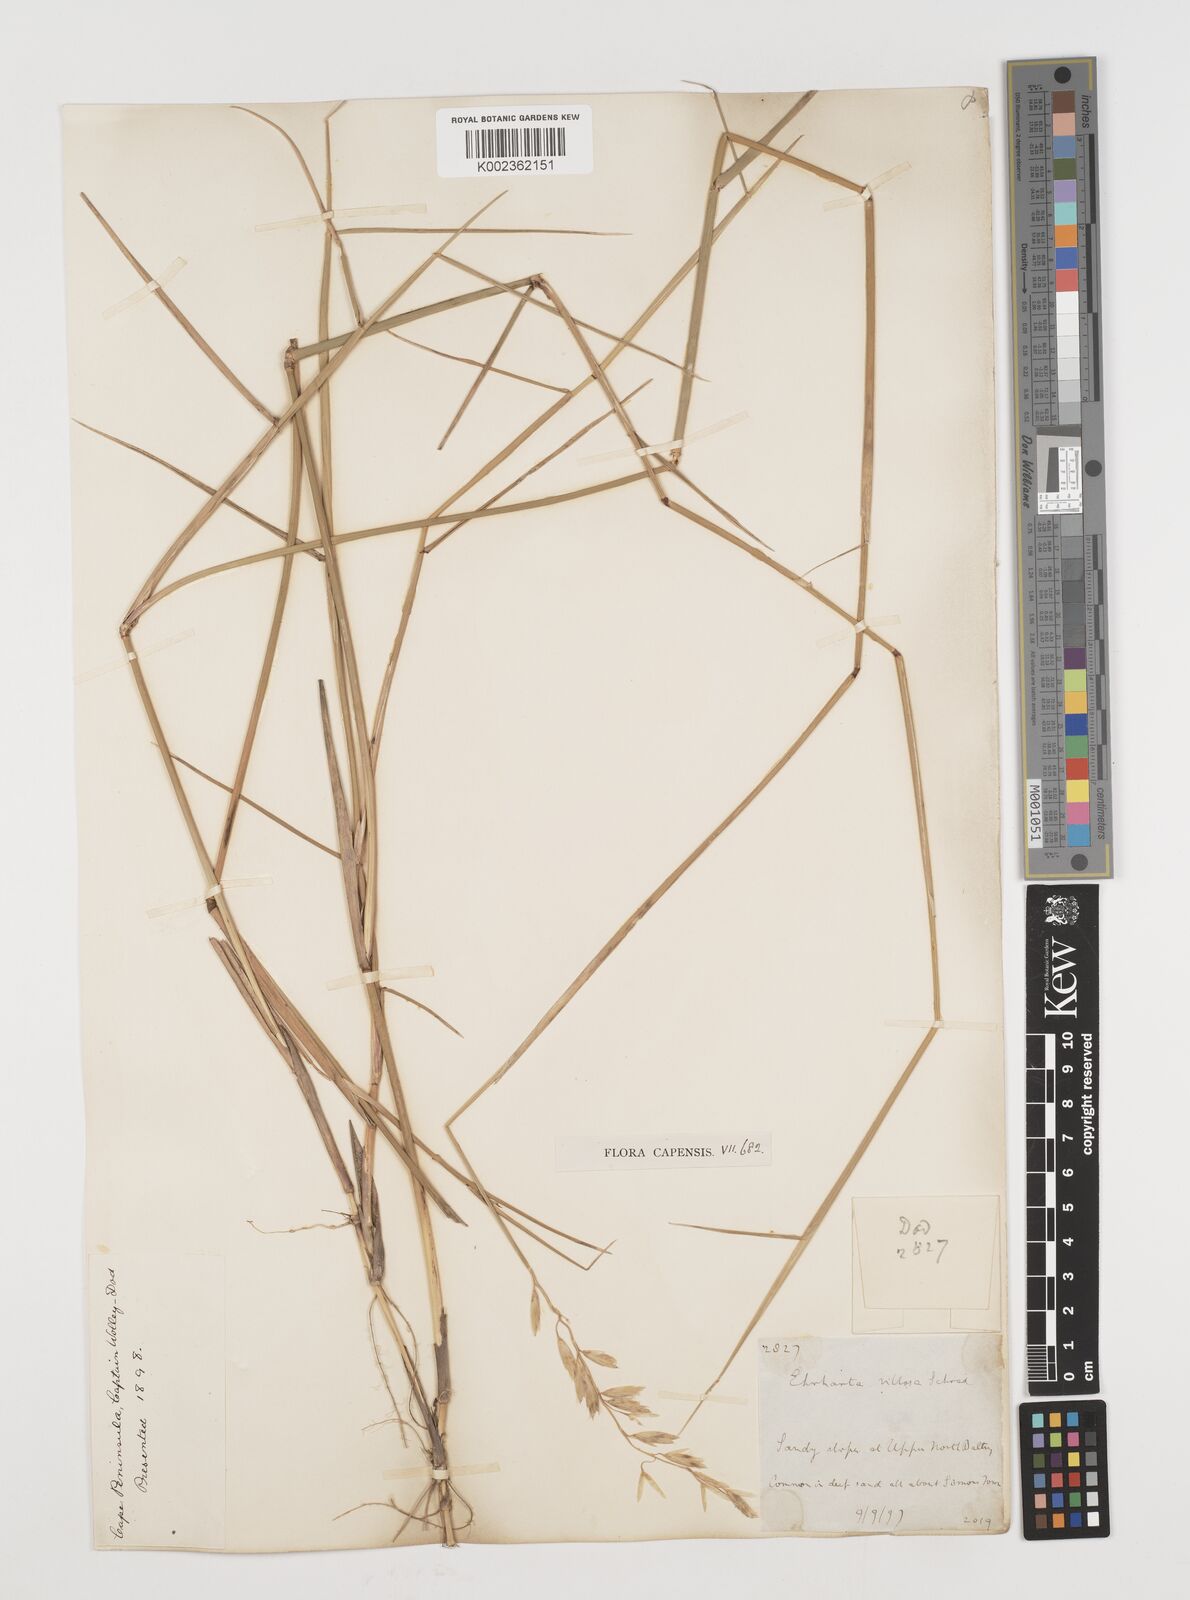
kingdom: Plantae
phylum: Tracheophyta
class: Liliopsida
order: Poales
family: Poaceae
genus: Ehrharta
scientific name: Ehrharta villosa
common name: Pyp grass
